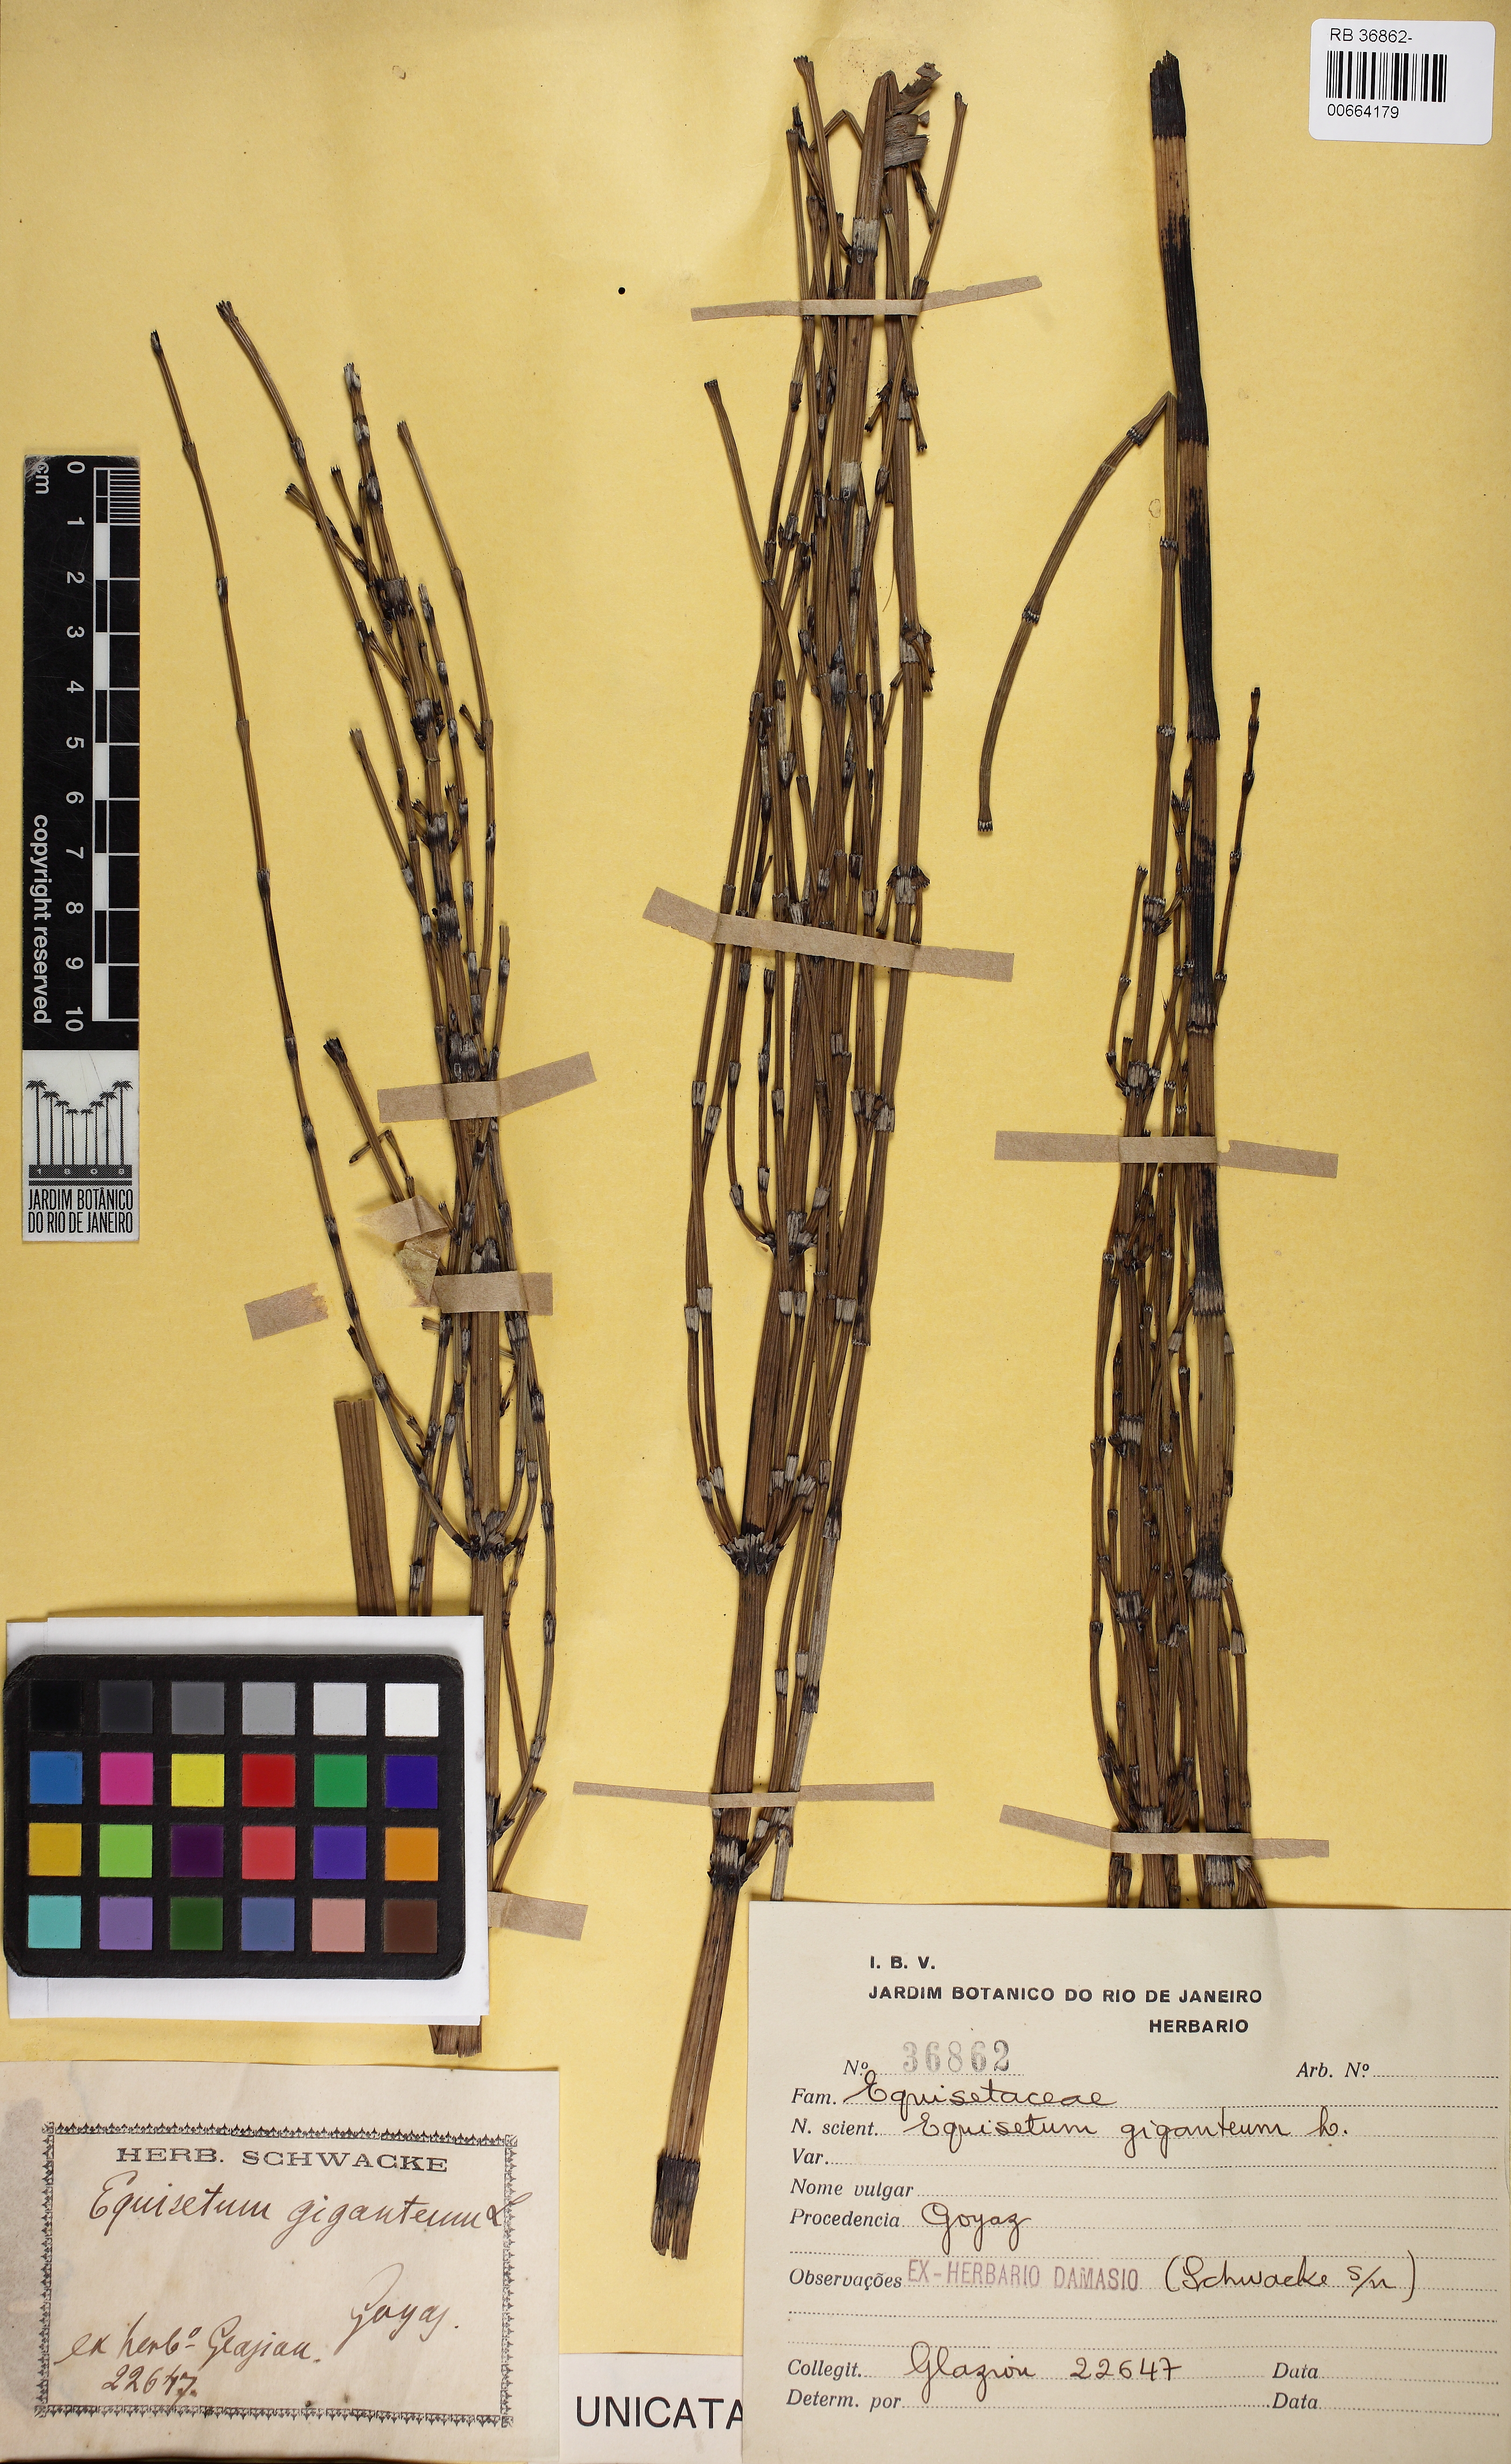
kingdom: Plantae
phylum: Tracheophyta
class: Polypodiopsida
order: Equisetales
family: Equisetaceae
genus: Equisetum
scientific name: Equisetum giganteum
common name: Giant horsetail
